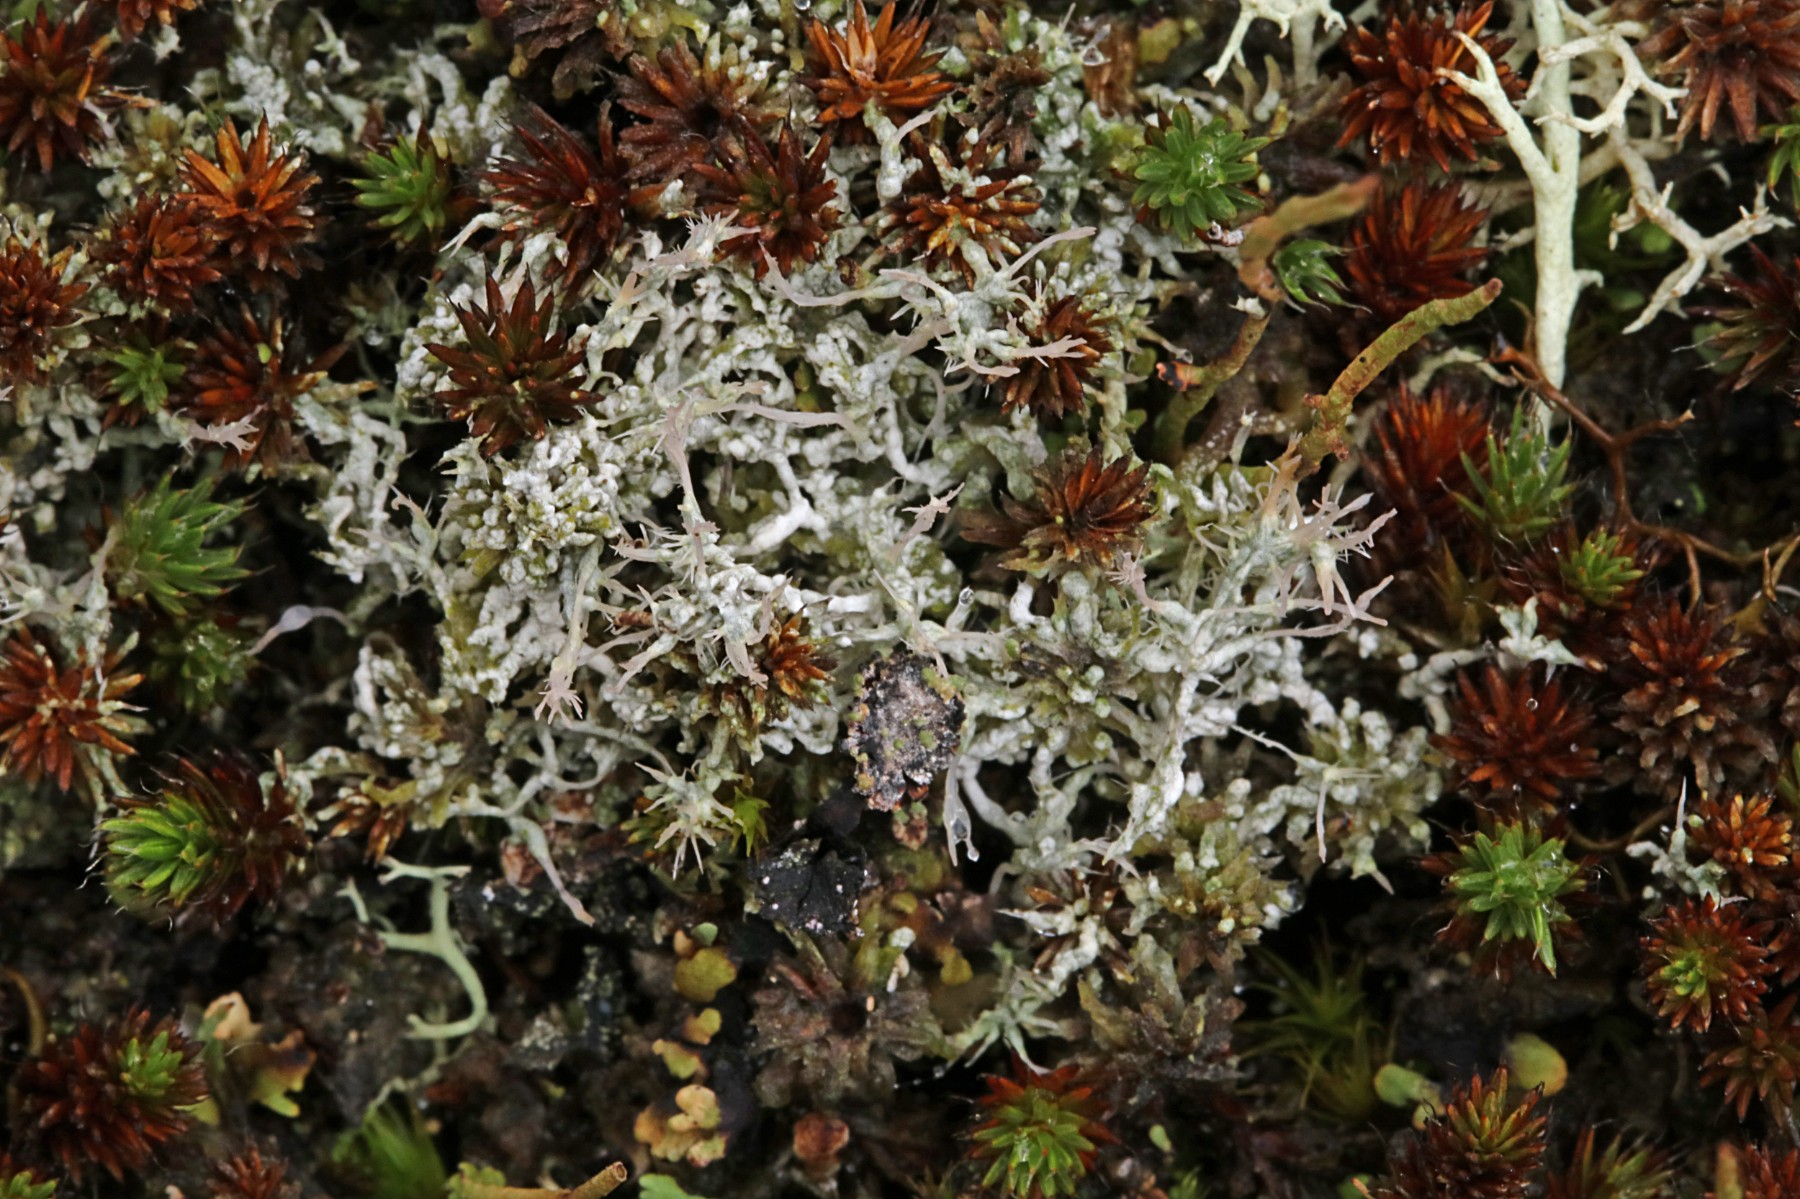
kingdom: Fungi
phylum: Ascomycota
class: Lecanoromycetes
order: Pertusariales
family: Ochrolechiaceae
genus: Ochrolechia
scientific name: Ochrolechia frigida
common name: fjeld-blegskivelav
